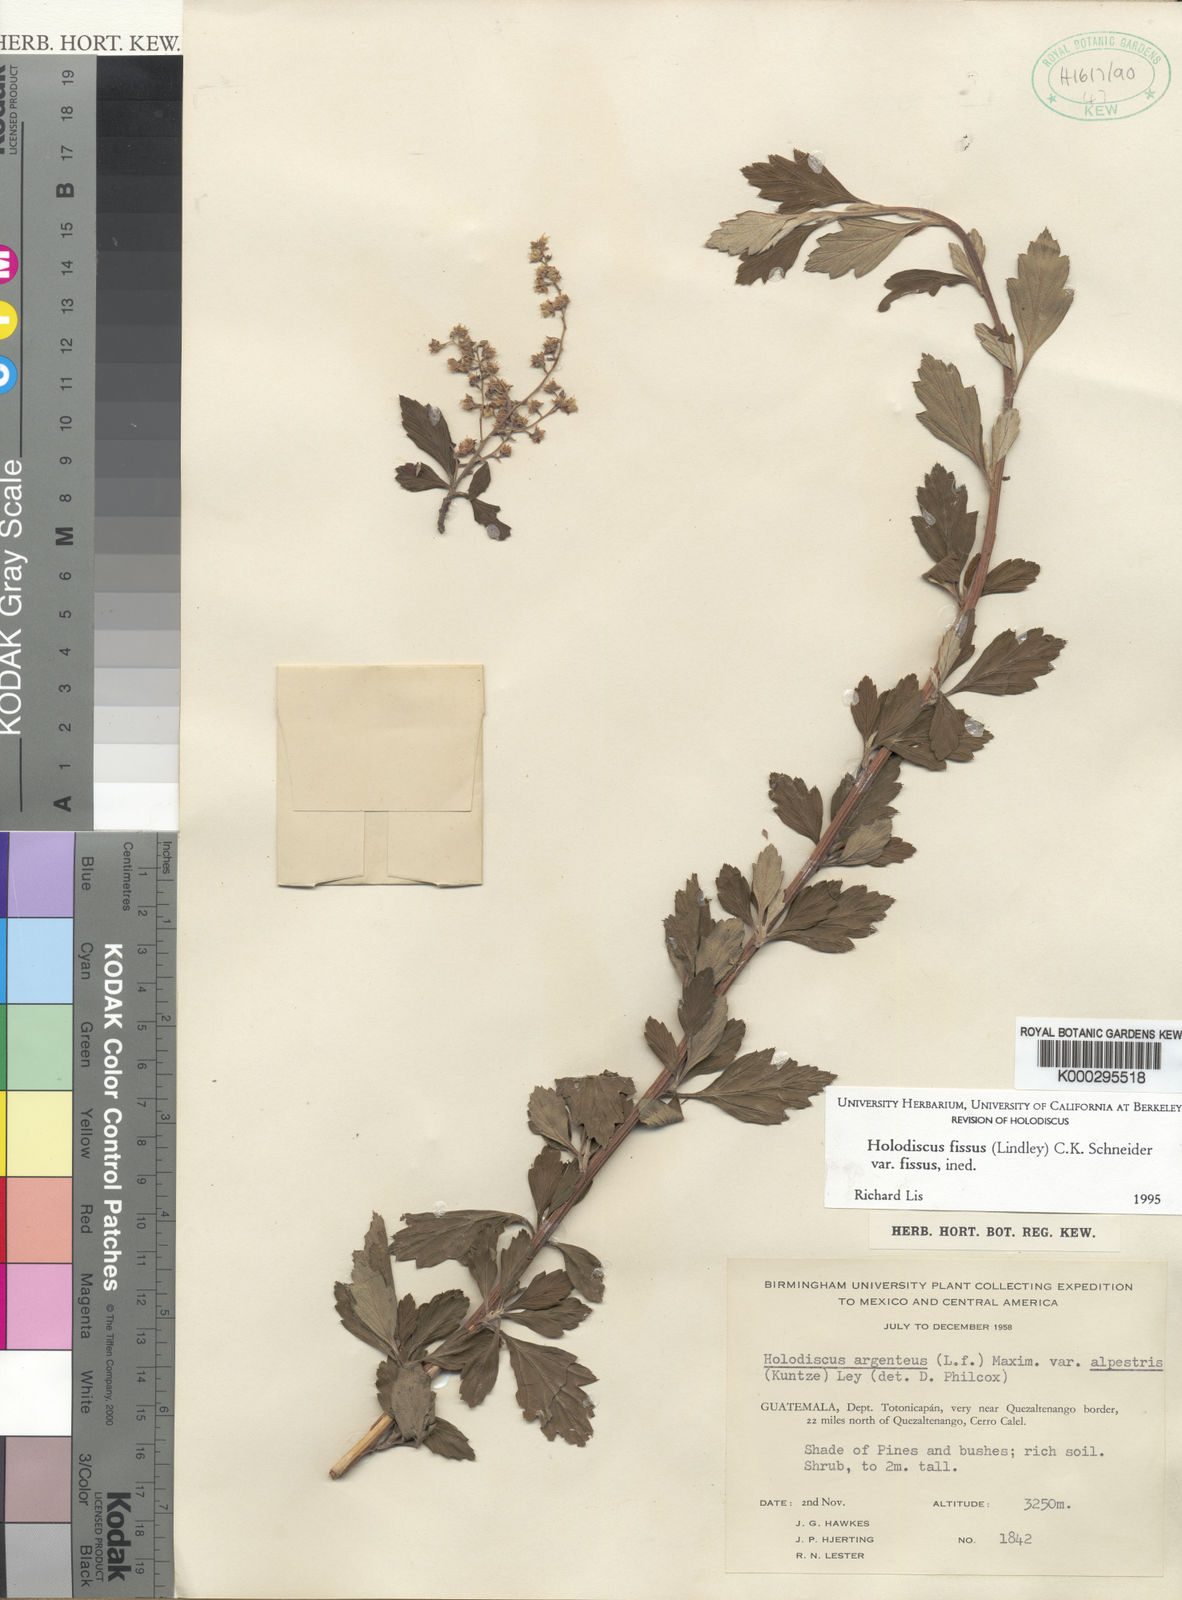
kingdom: Plantae
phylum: Tracheophyta
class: Magnoliopsida
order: Rosales
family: Rosaceae
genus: Holodiscus
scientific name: Holodiscus fissus
